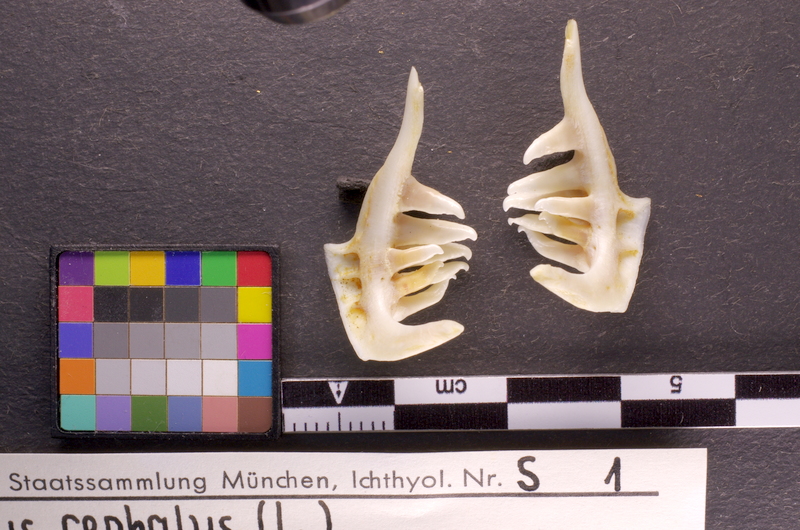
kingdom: Animalia
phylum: Chordata
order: Cypriniformes
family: Cyprinidae
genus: Squalius
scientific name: Squalius cephalus
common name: Chub
